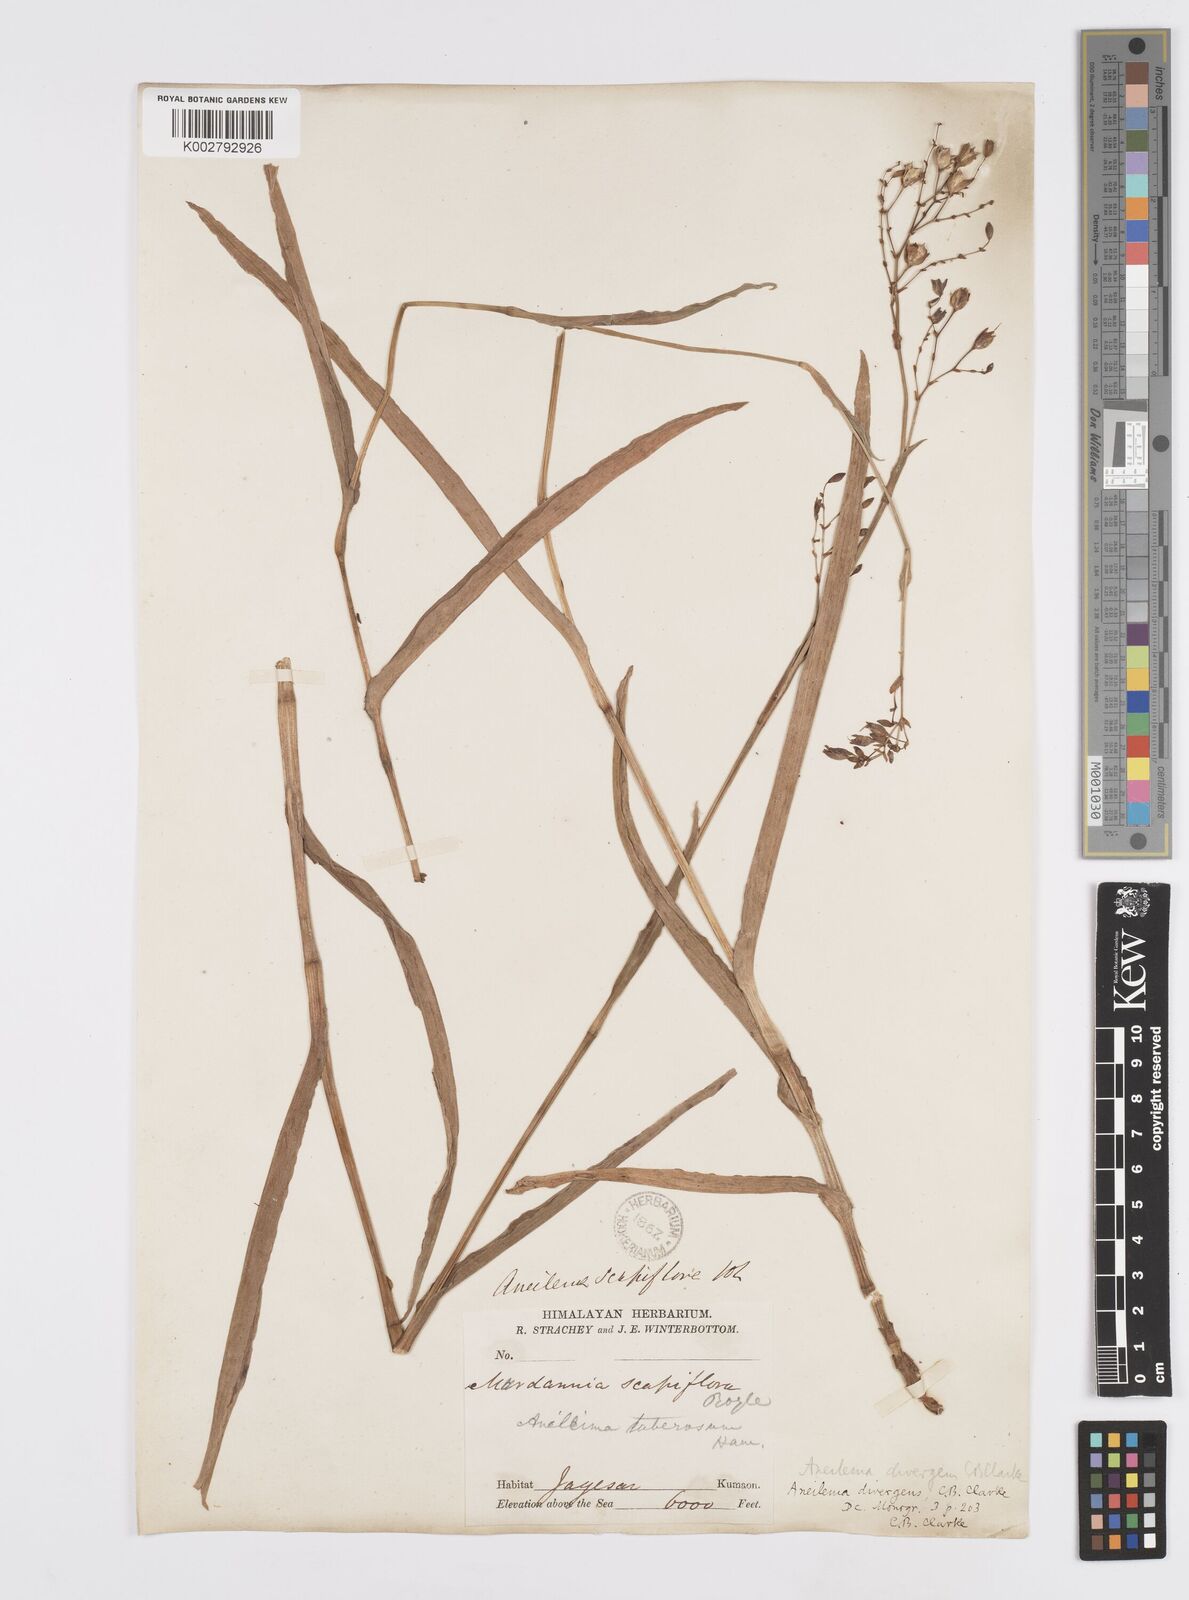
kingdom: Plantae
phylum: Tracheophyta
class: Liliopsida
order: Commelinales
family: Commelinaceae
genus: Murdannia
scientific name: Murdannia divergens
